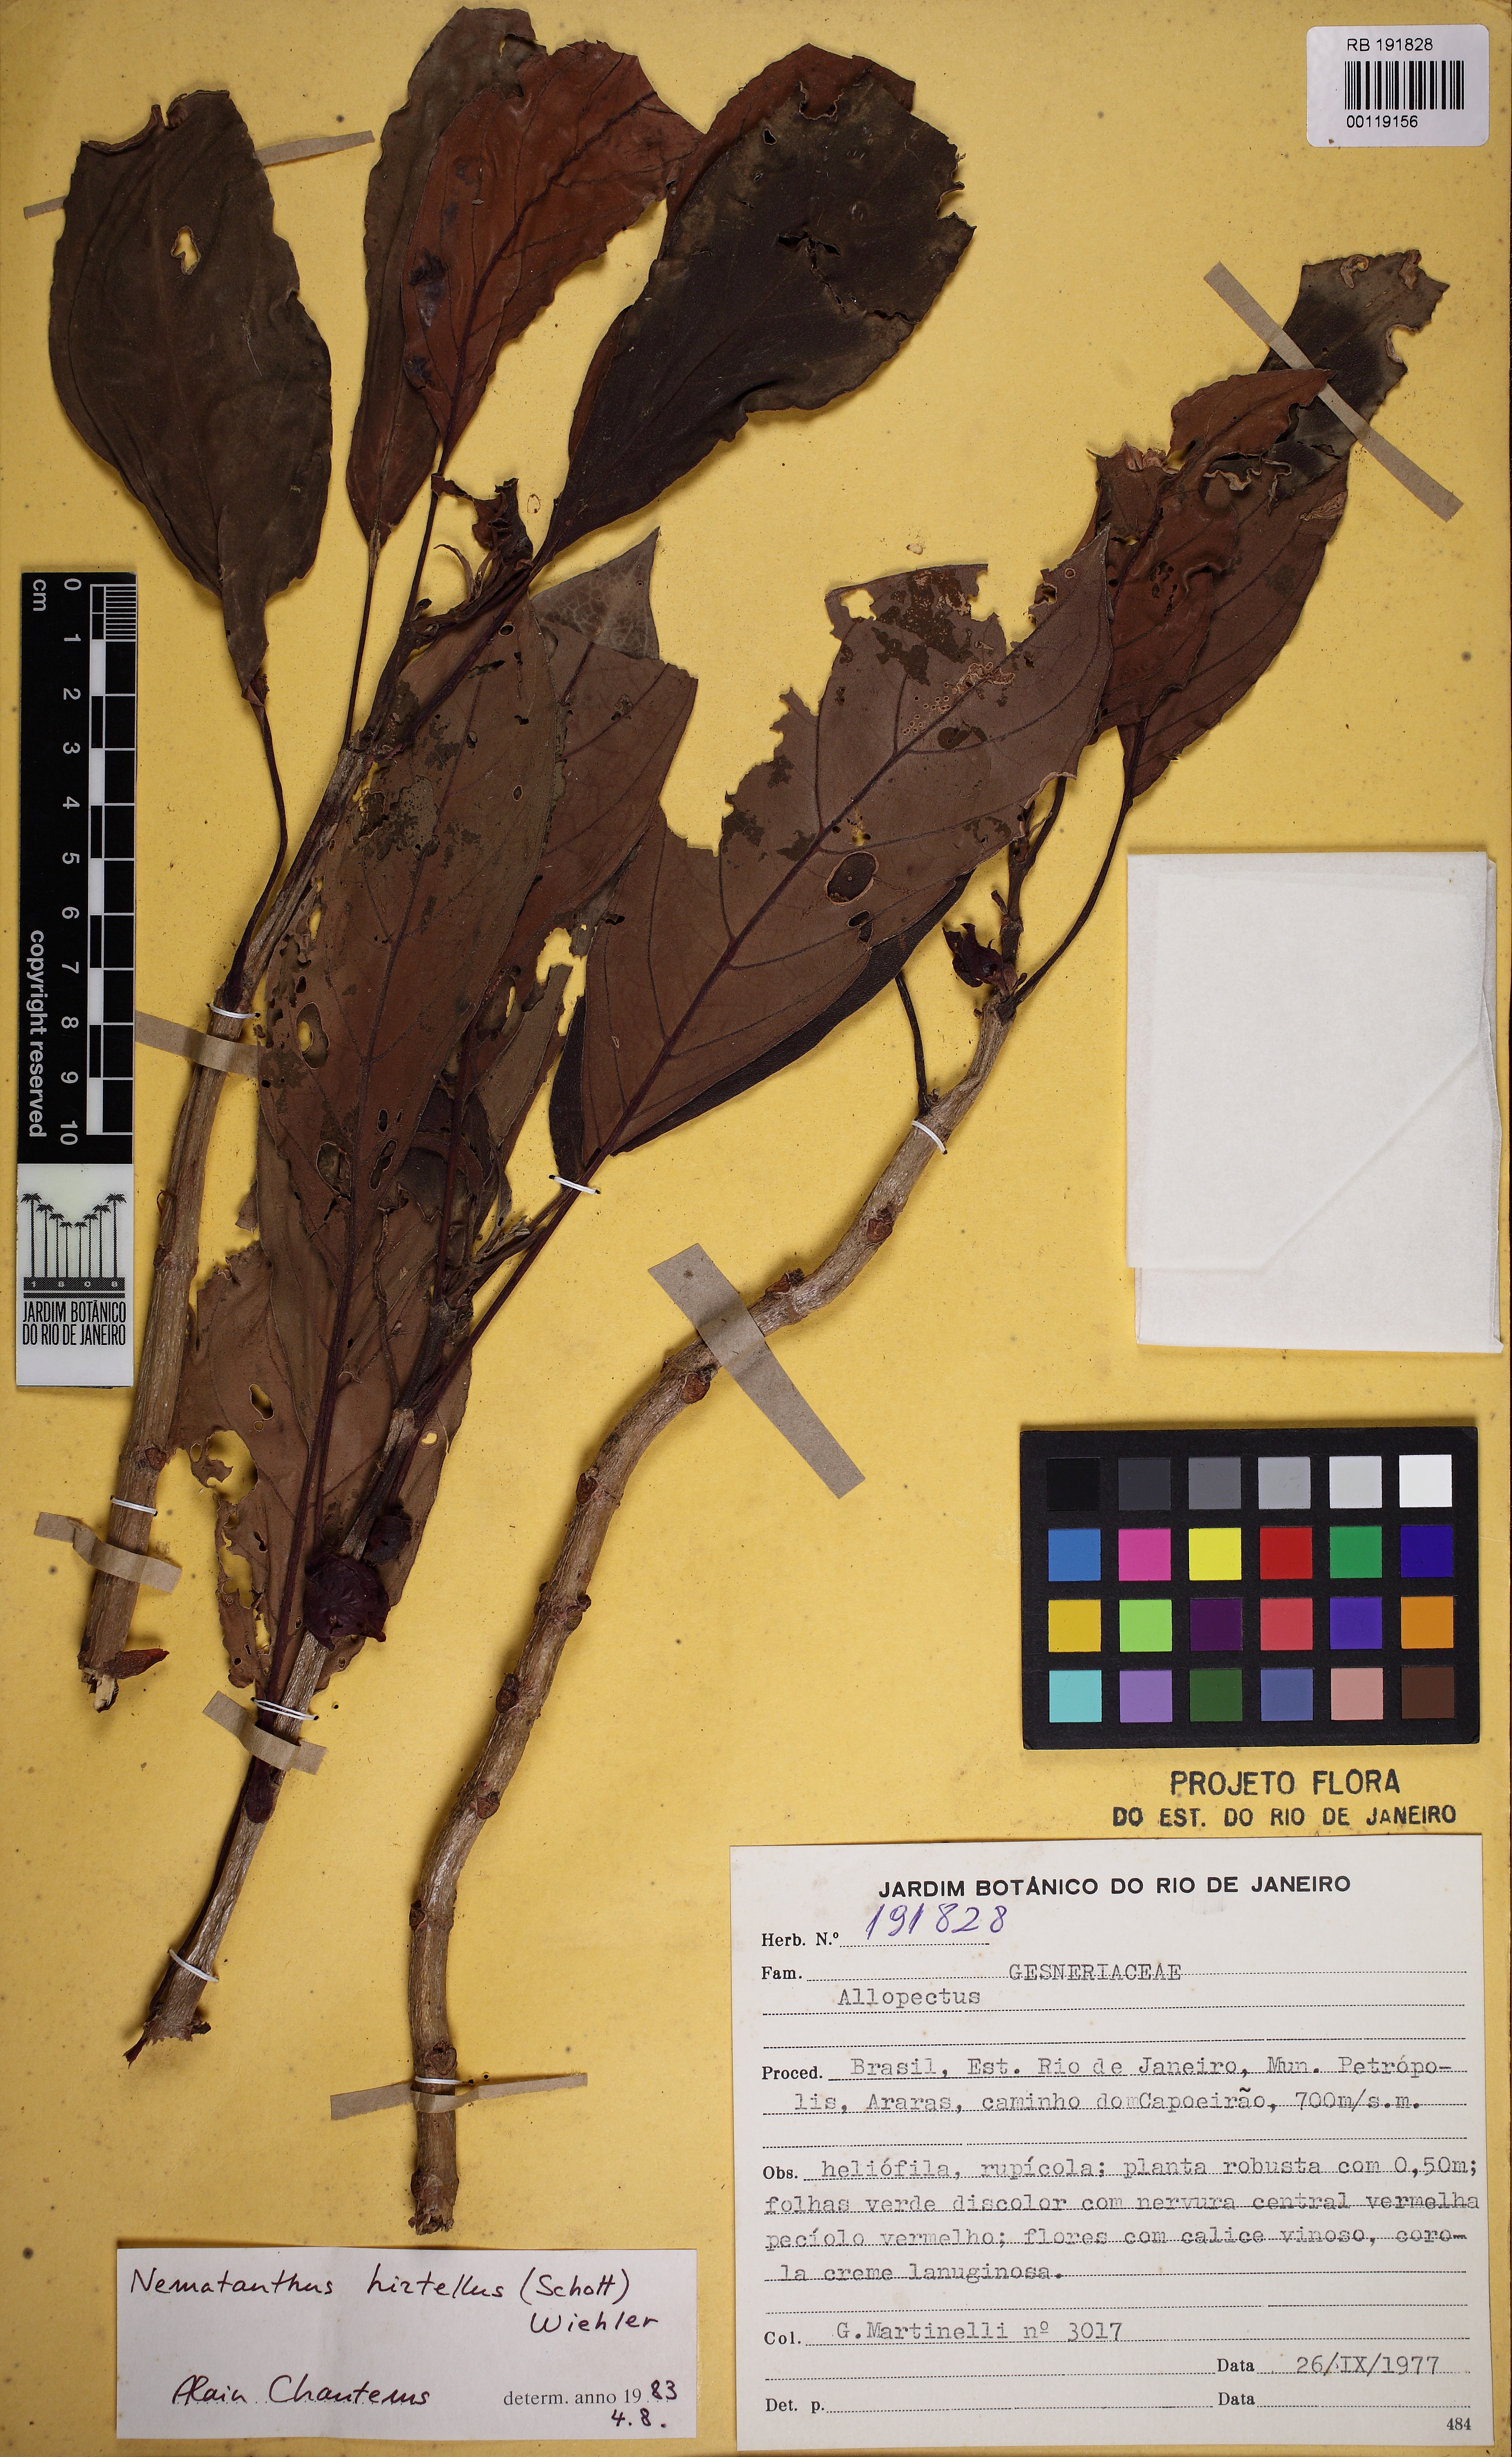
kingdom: Plantae
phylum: Tracheophyta
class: Magnoliopsida
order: Lamiales
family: Gesneriaceae
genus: Nematanthus
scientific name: Nematanthus hirtellus
